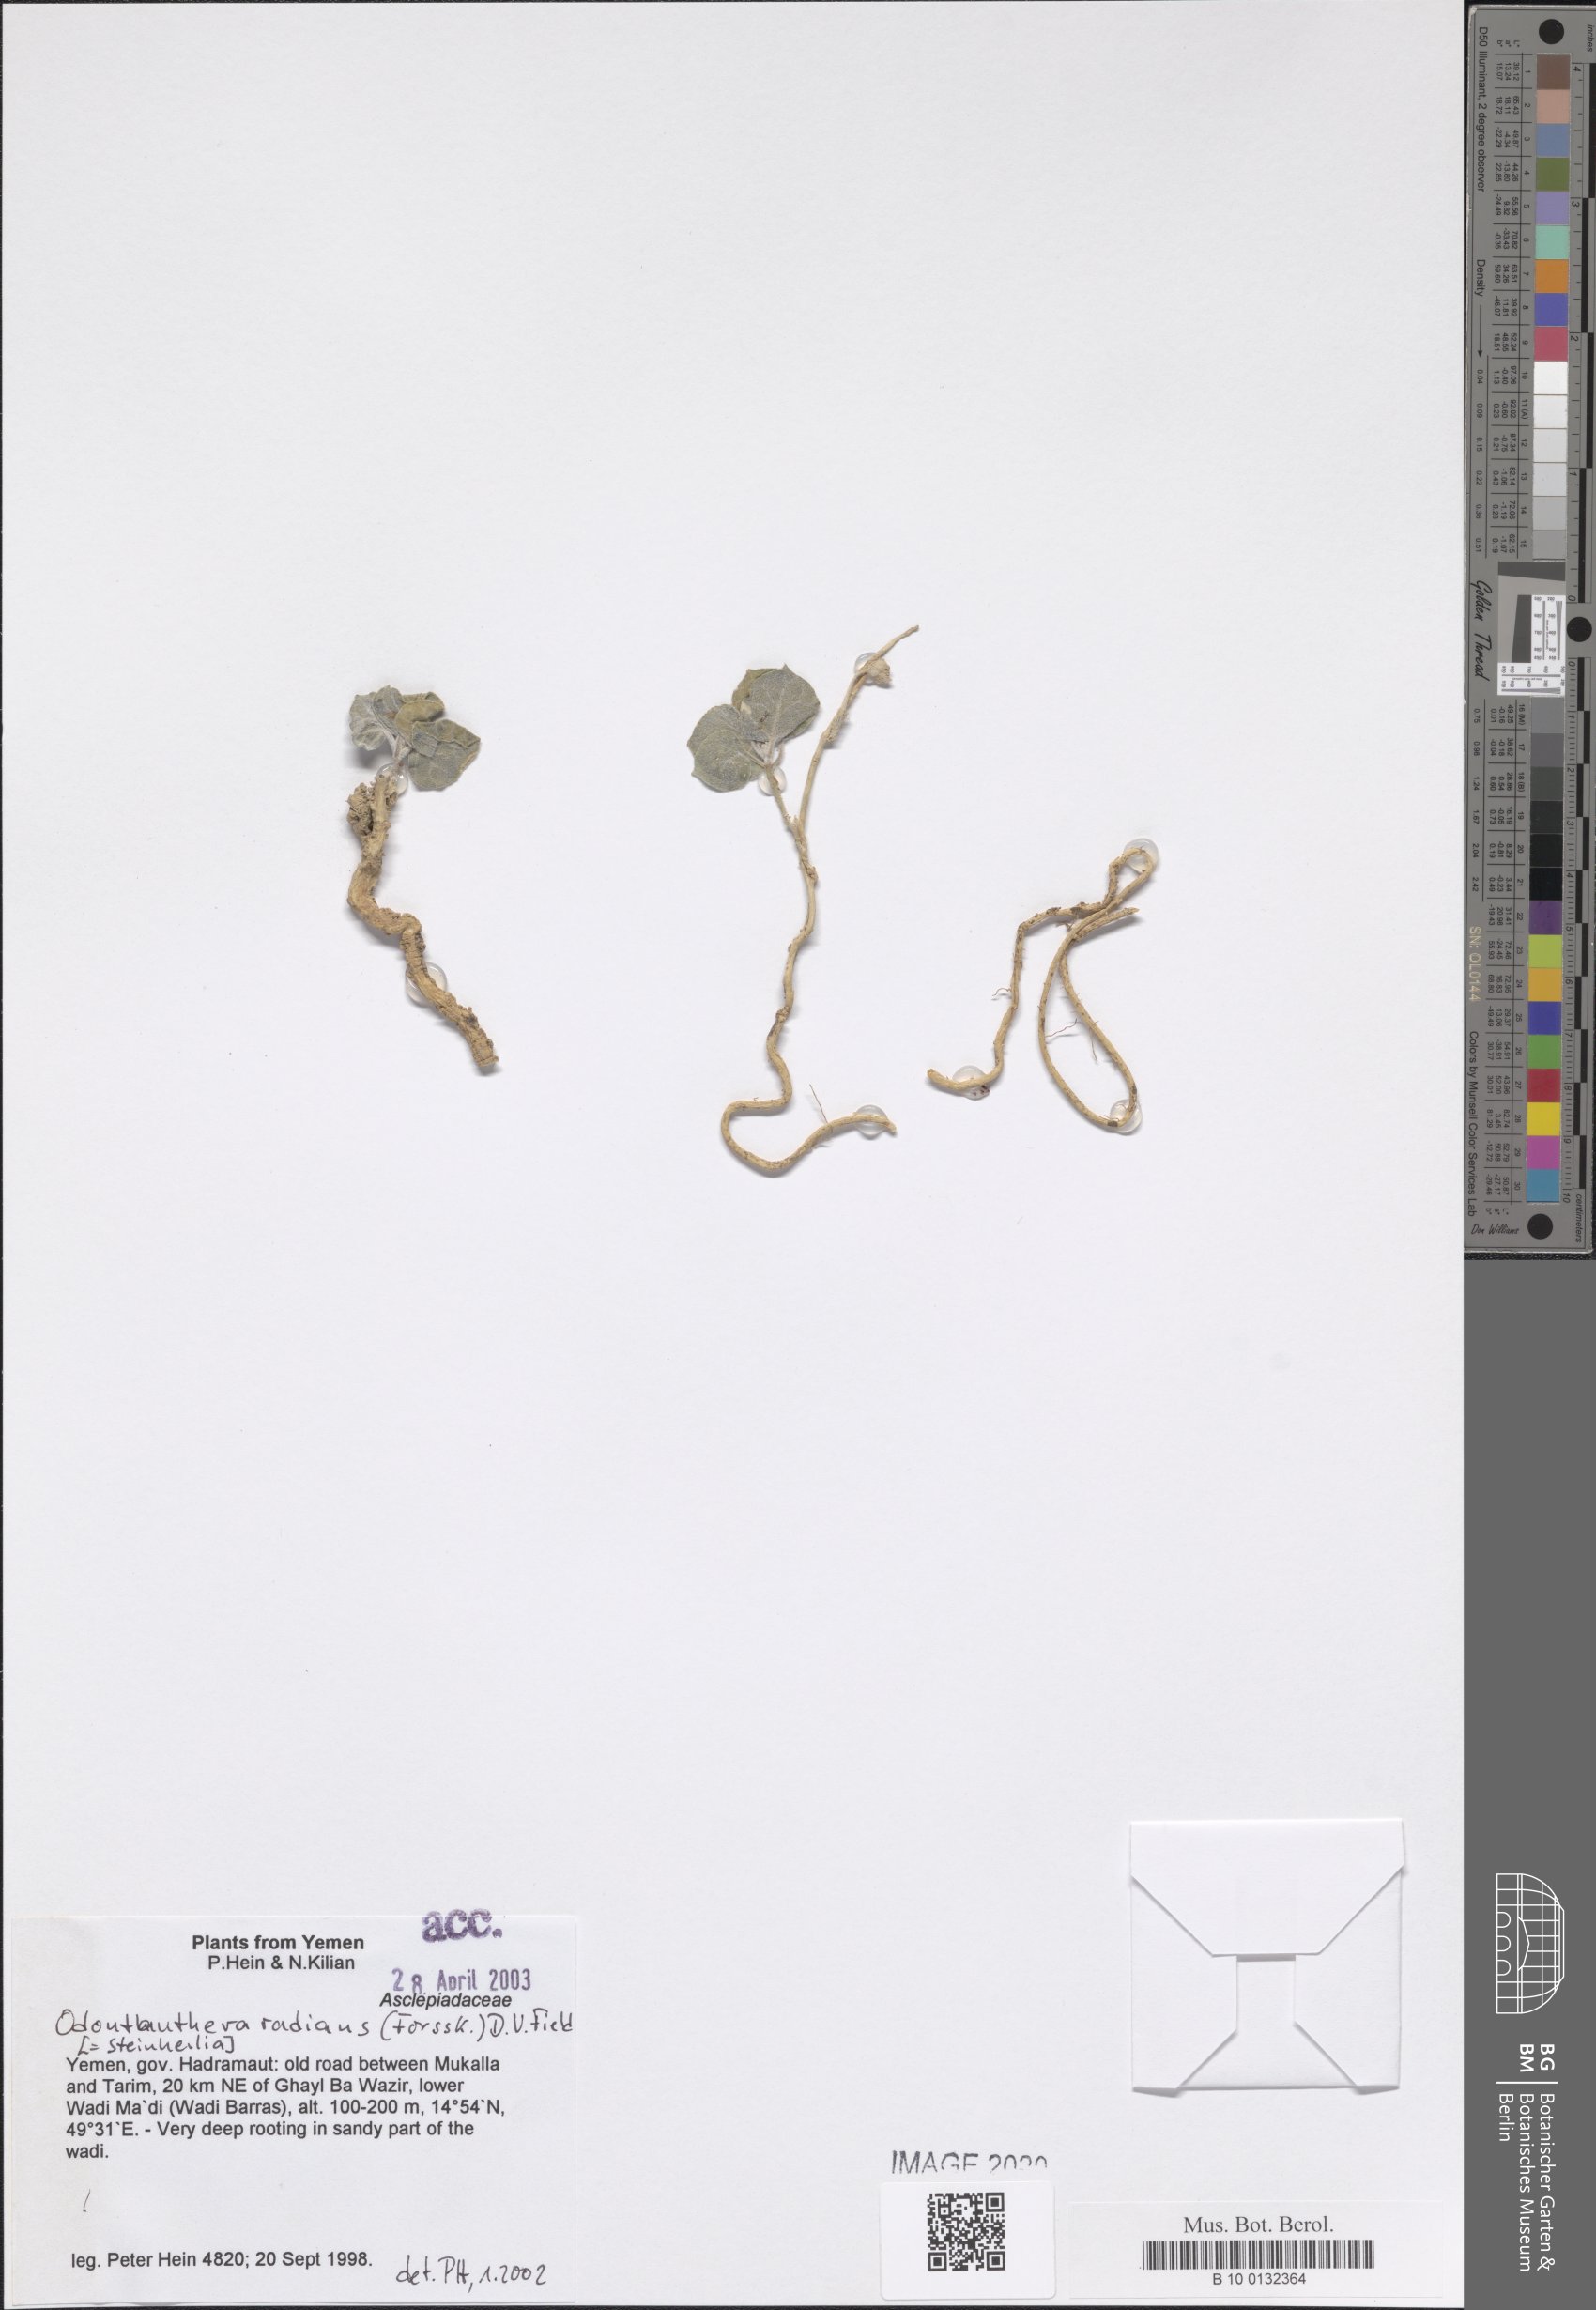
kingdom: Plantae
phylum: Tracheophyta
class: Magnoliopsida
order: Gentianales
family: Apocynaceae
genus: Cynanchum
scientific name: Cynanchum radians
